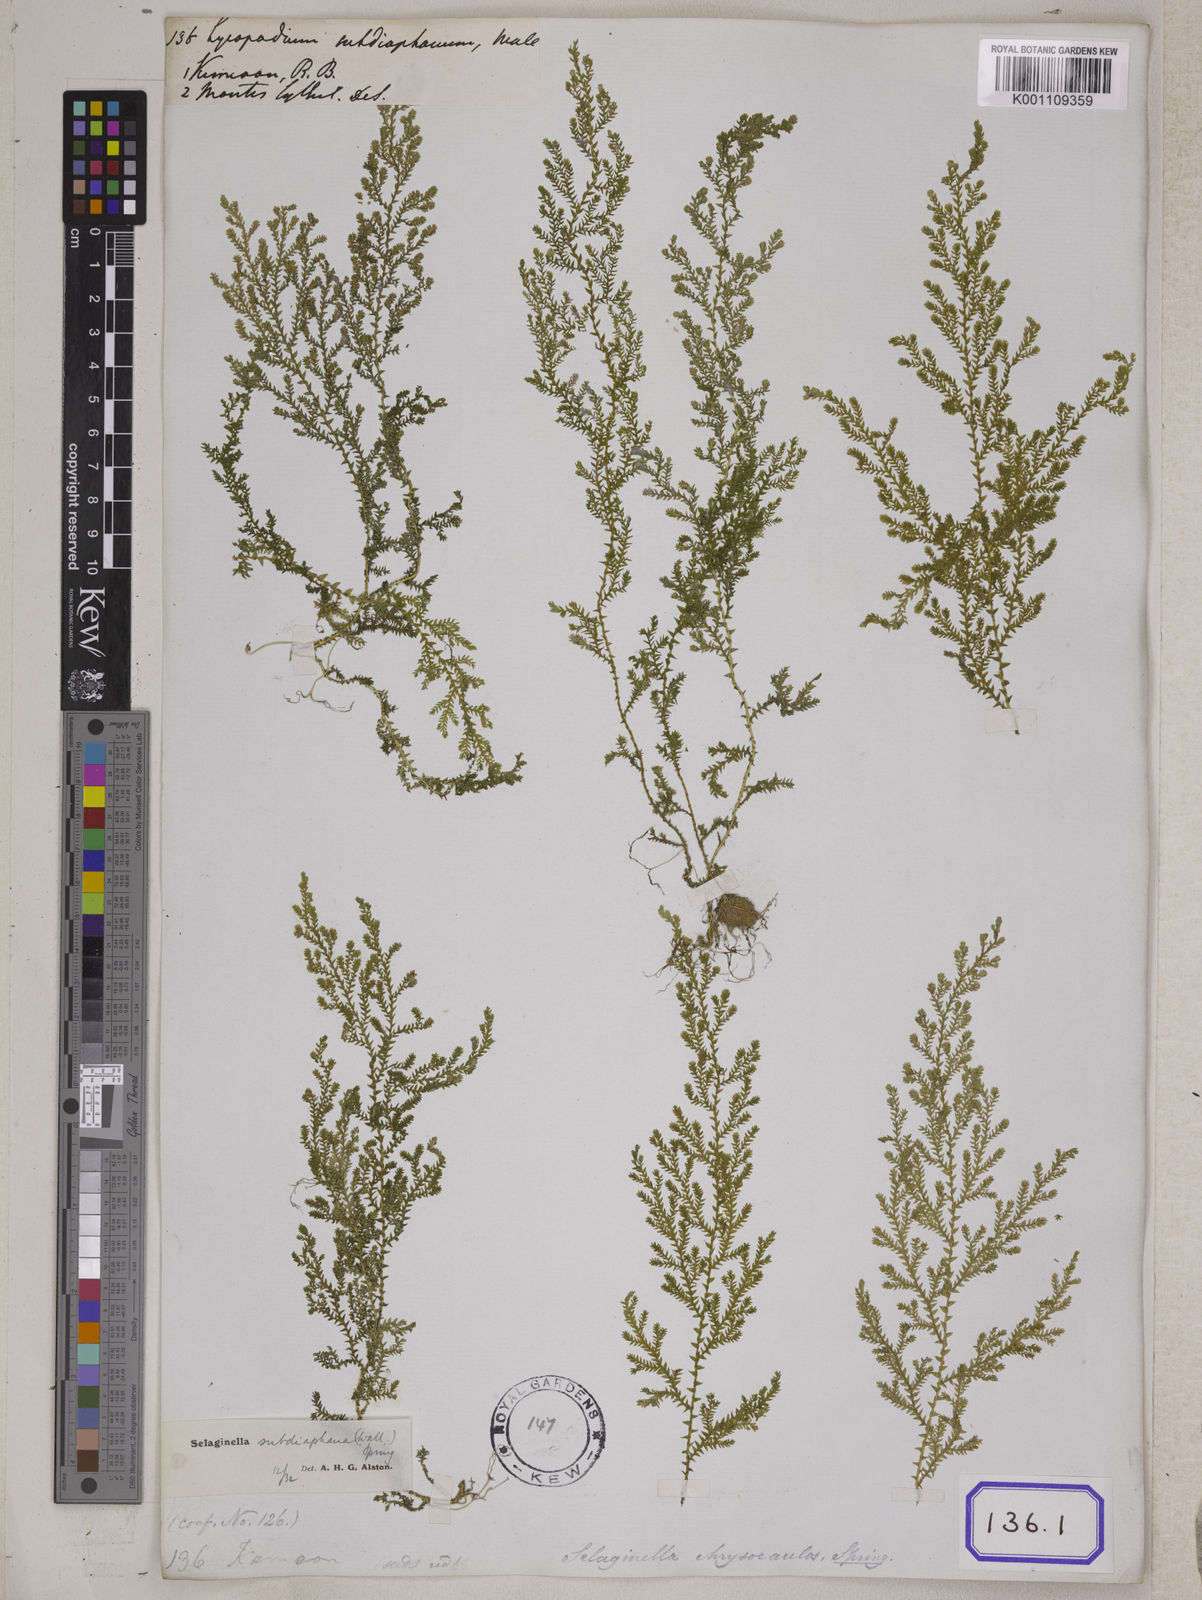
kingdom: Plantae
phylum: Tracheophyta
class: Lycopodiopsida
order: Selaginellales
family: Selaginellaceae
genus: Selaginella
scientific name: Selaginella subdiaphana
